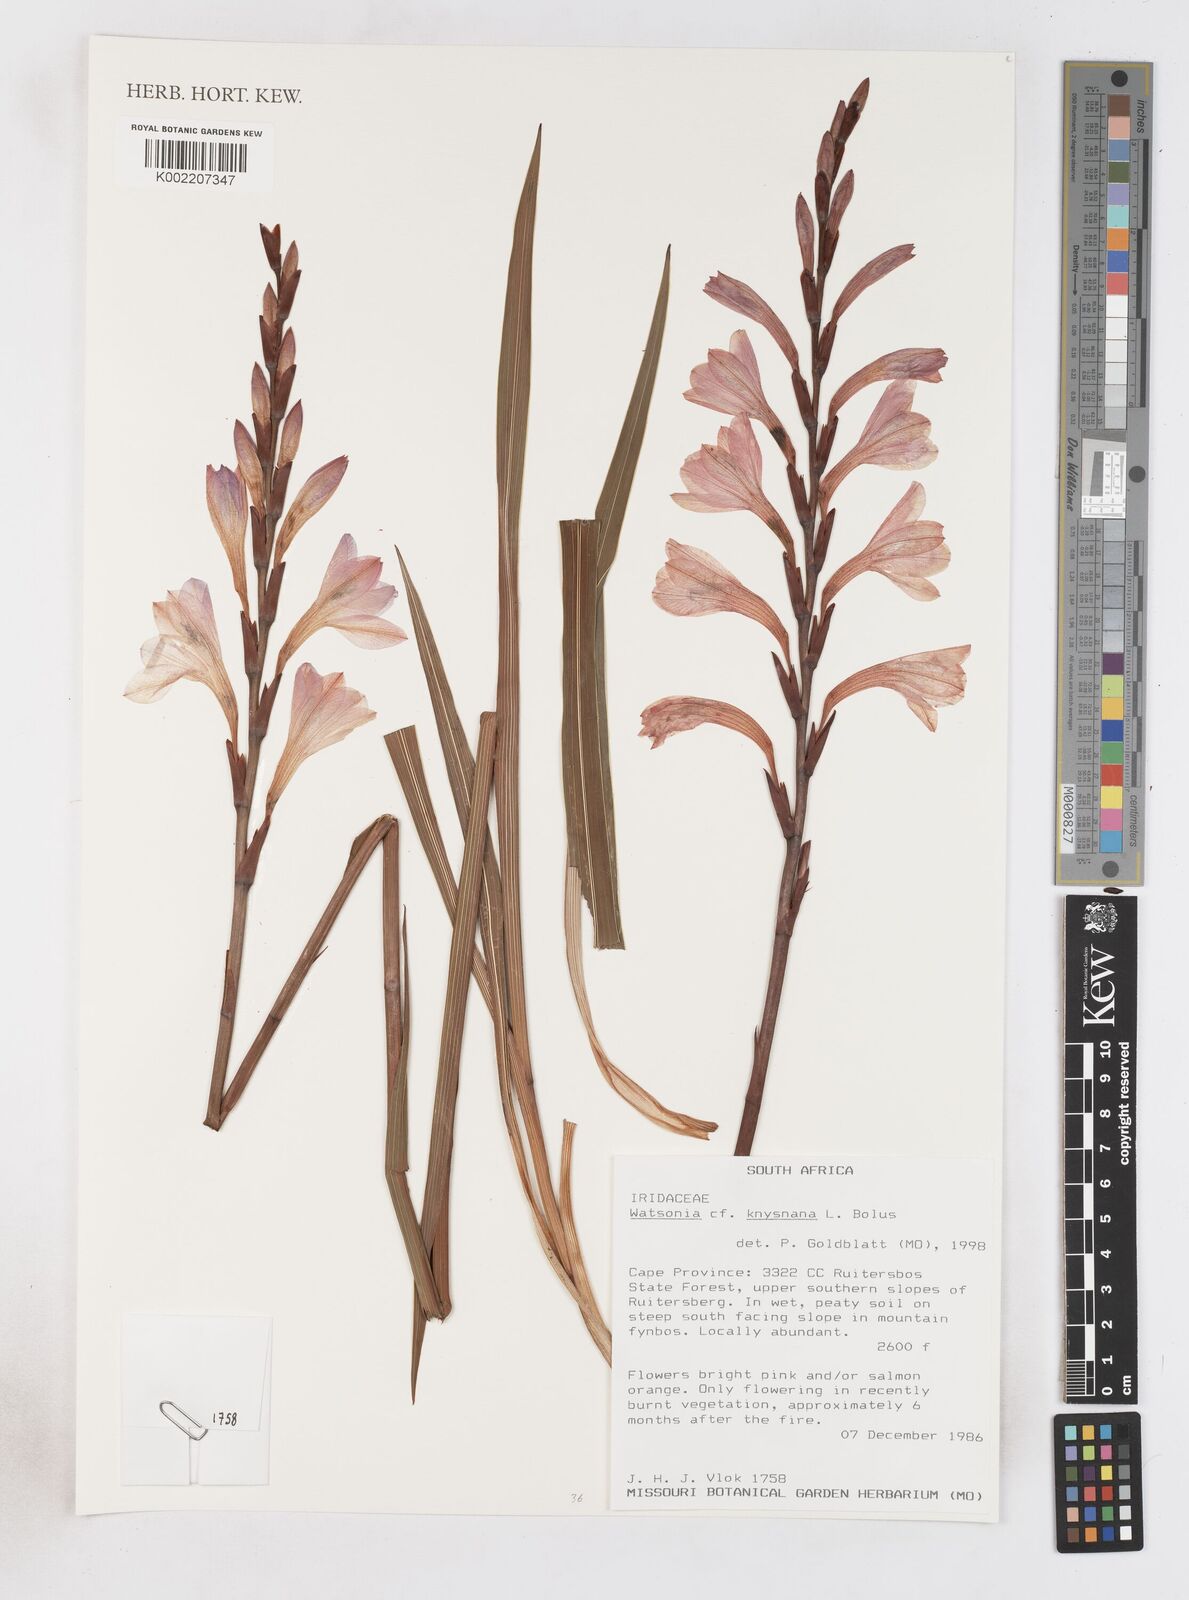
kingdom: Plantae
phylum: Tracheophyta
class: Liliopsida
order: Asparagales
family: Iridaceae
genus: Watsonia
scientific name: Watsonia knysnana
